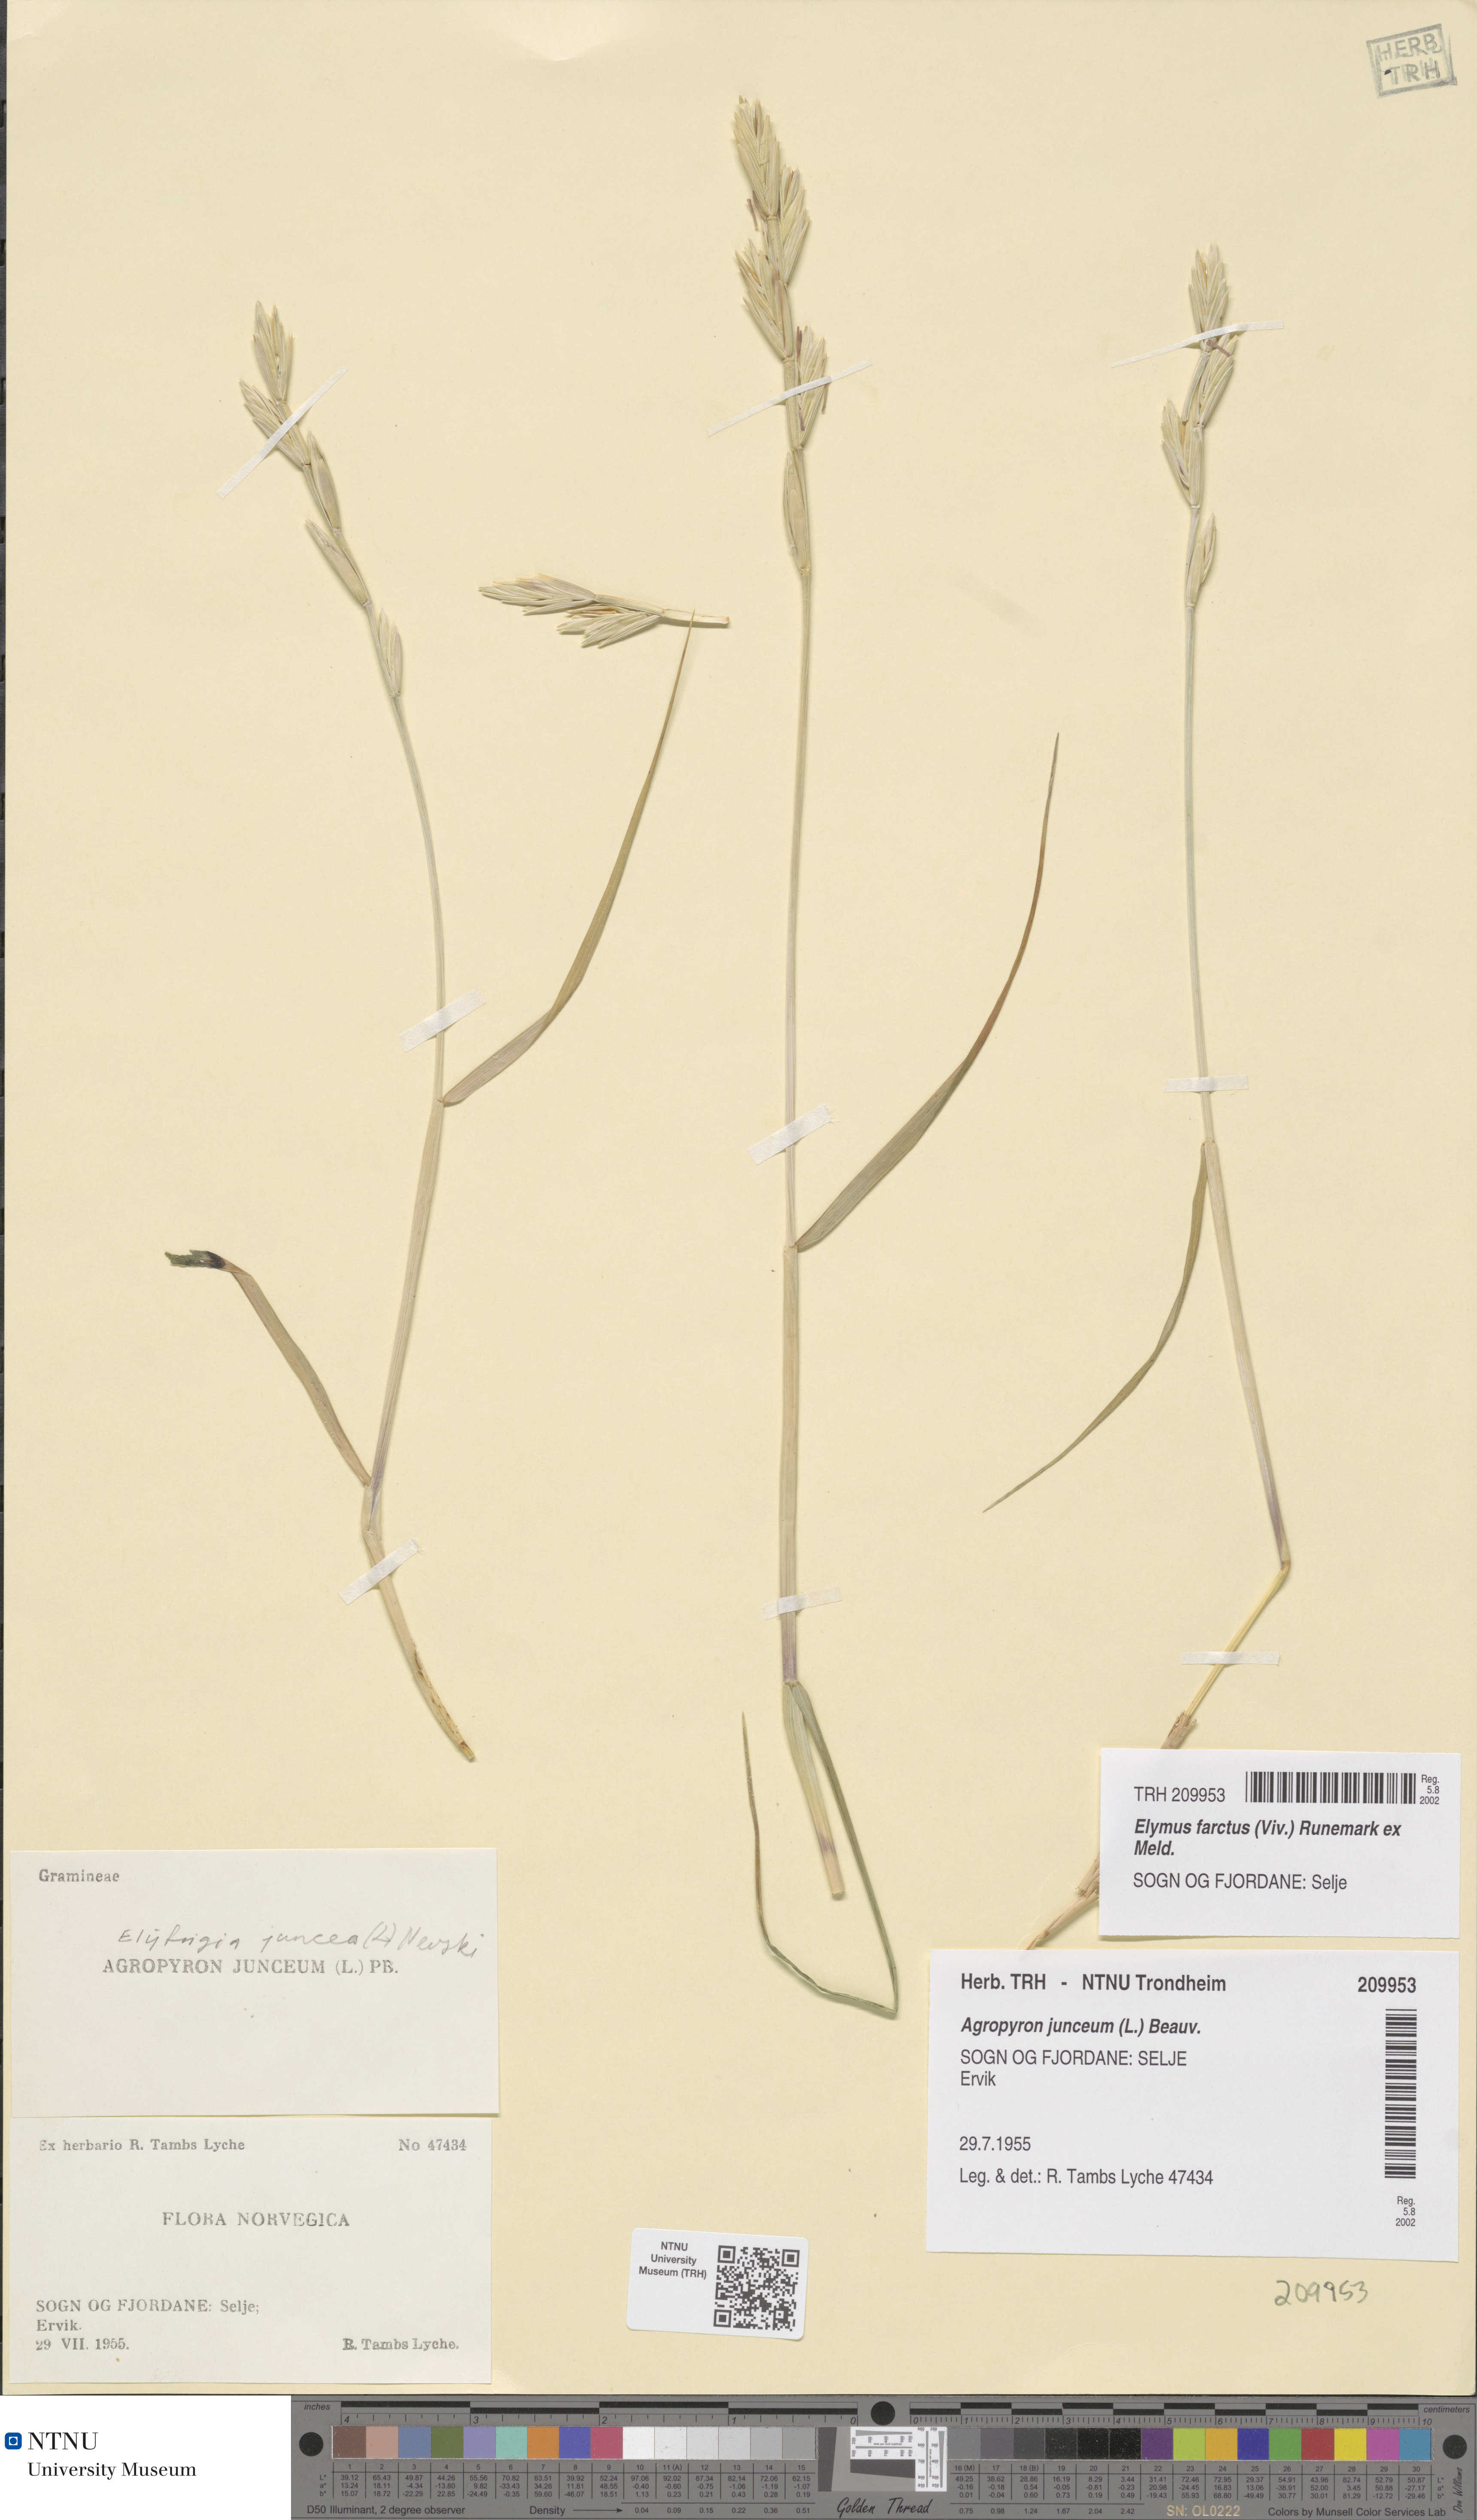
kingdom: Plantae
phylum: Tracheophyta
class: Liliopsida
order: Poales
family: Poaceae
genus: Thinopyrum
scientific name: Thinopyrum junceiforme
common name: Sea couch
